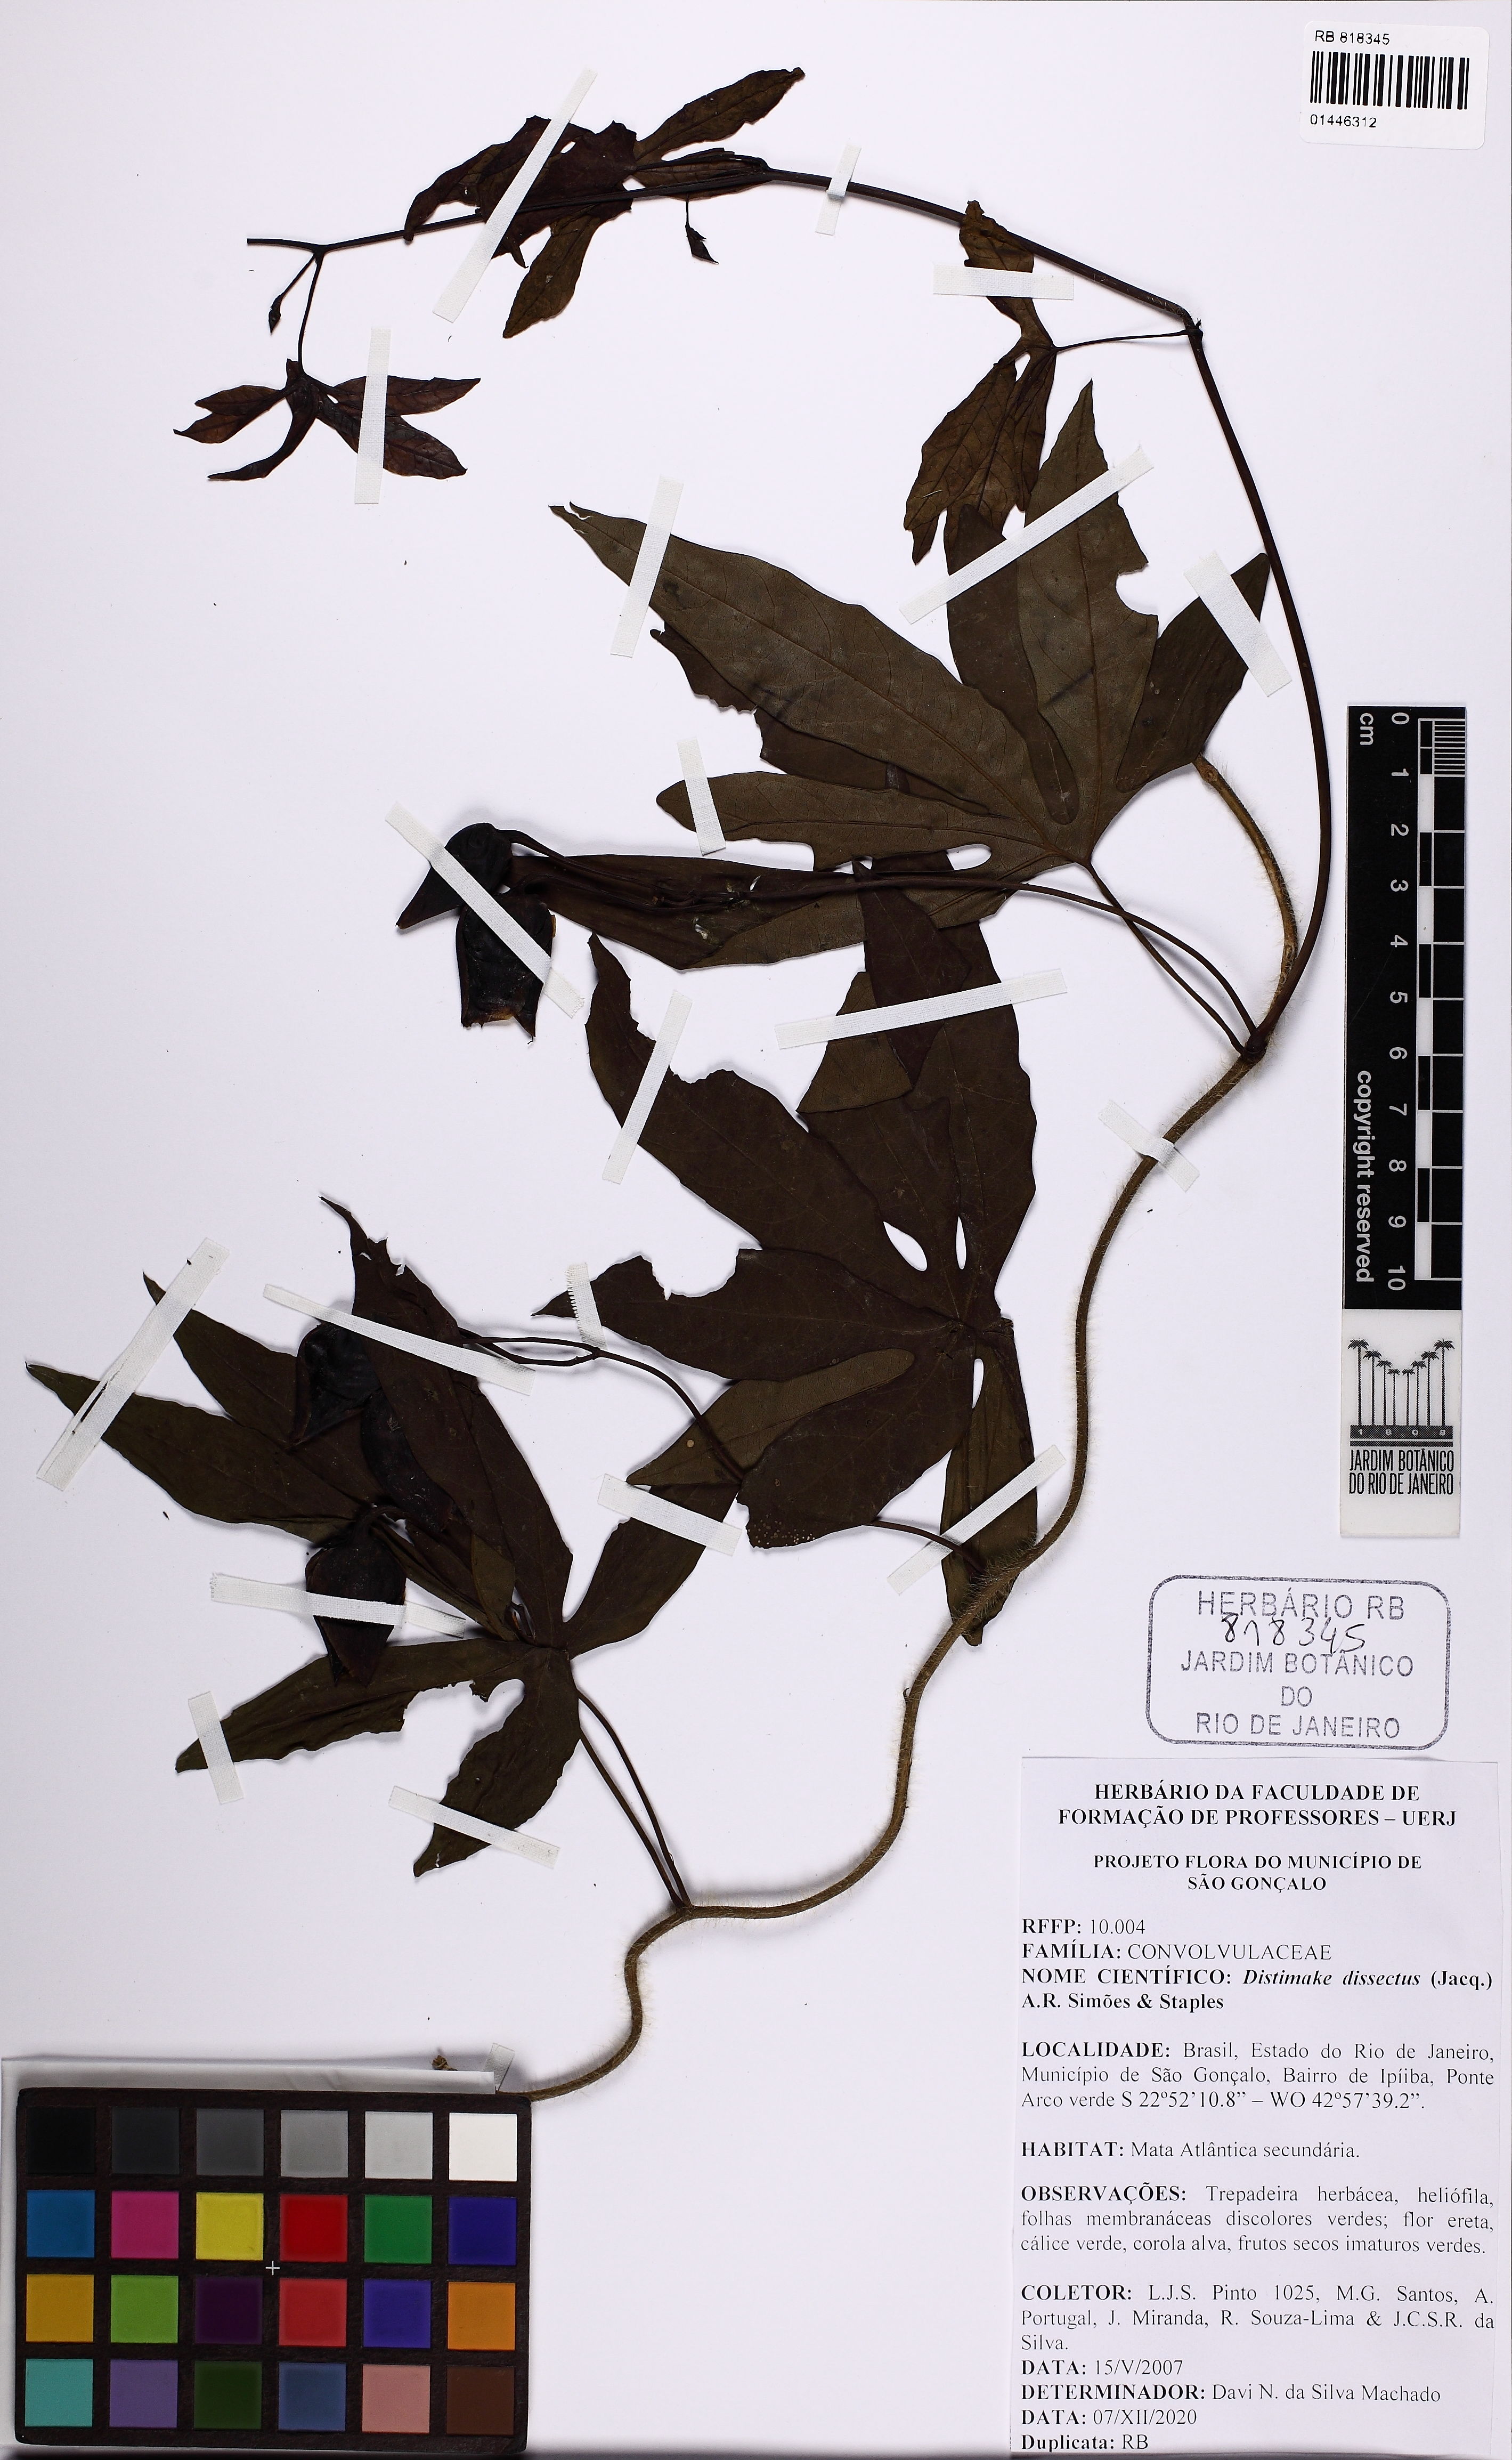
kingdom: Plantae
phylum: Tracheophyta
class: Magnoliopsida
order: Solanales
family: Convolvulaceae
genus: Distimake
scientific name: Distimake dissectus
